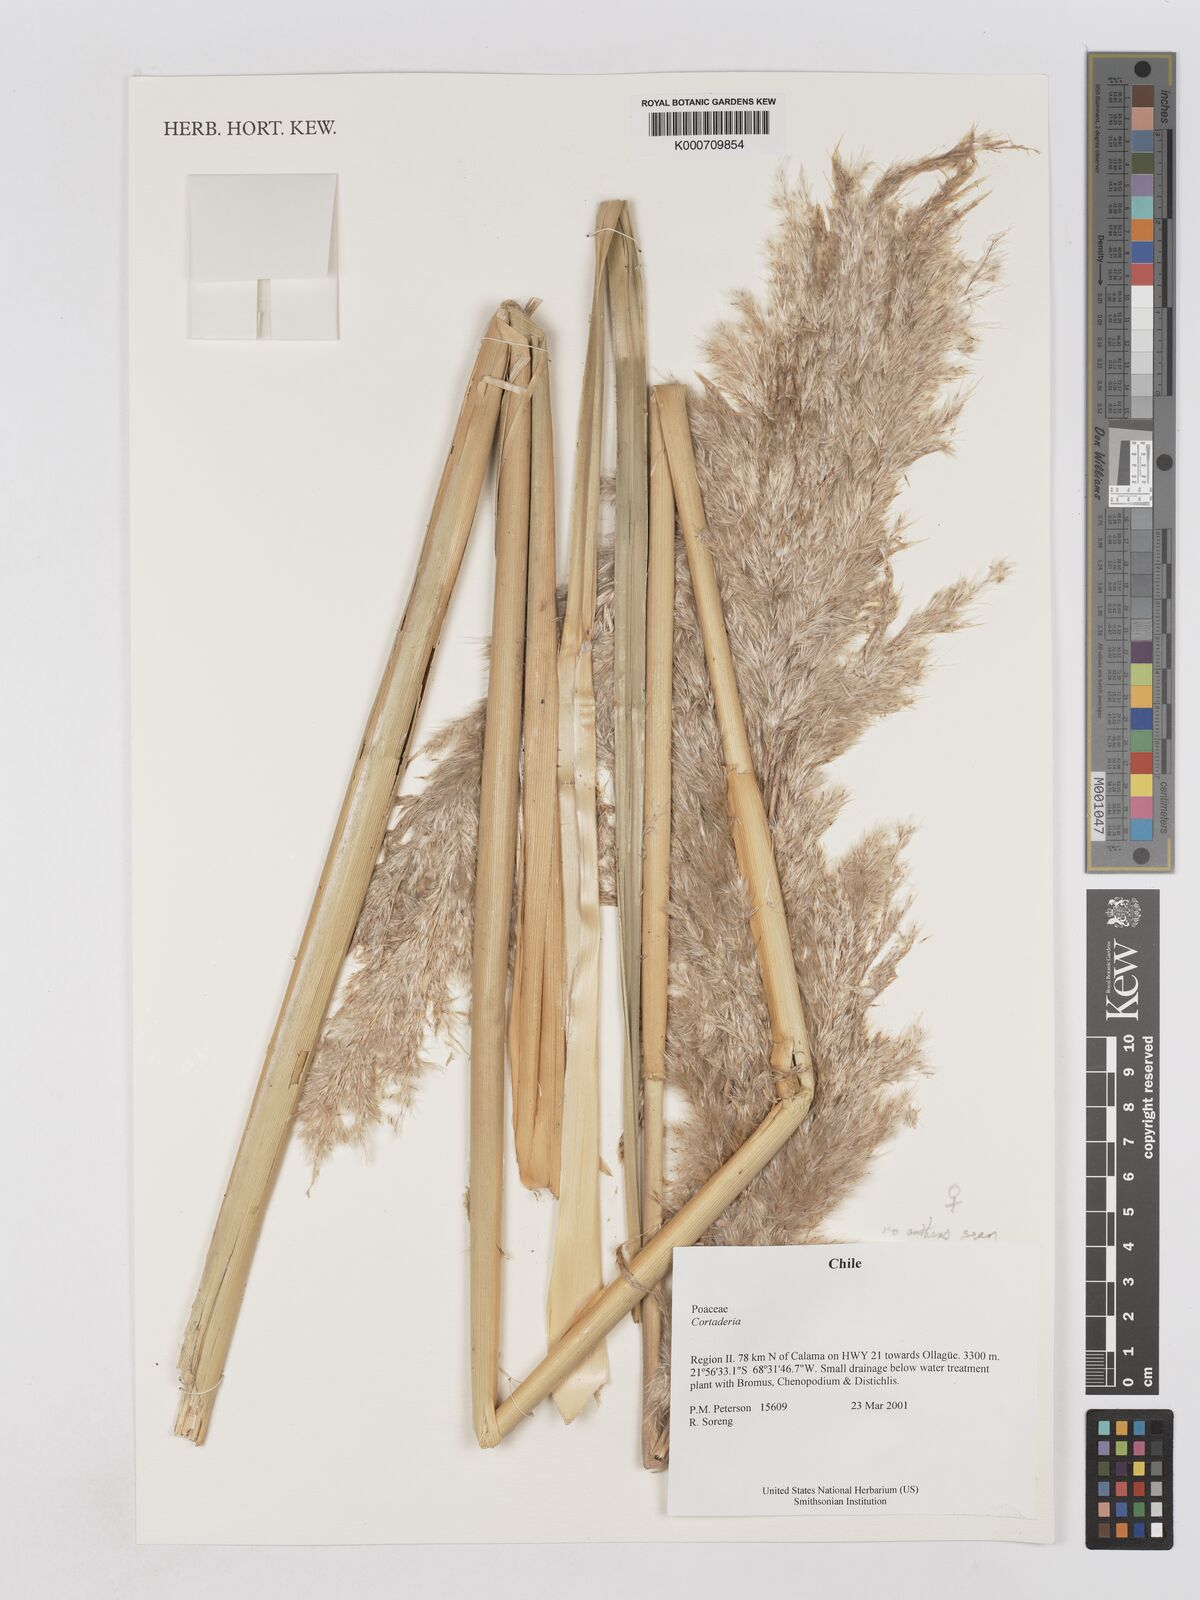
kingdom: Plantae
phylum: Tracheophyta
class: Liliopsida
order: Poales
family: Poaceae
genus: Cortaderia
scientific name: Cortaderia rudiuscula
